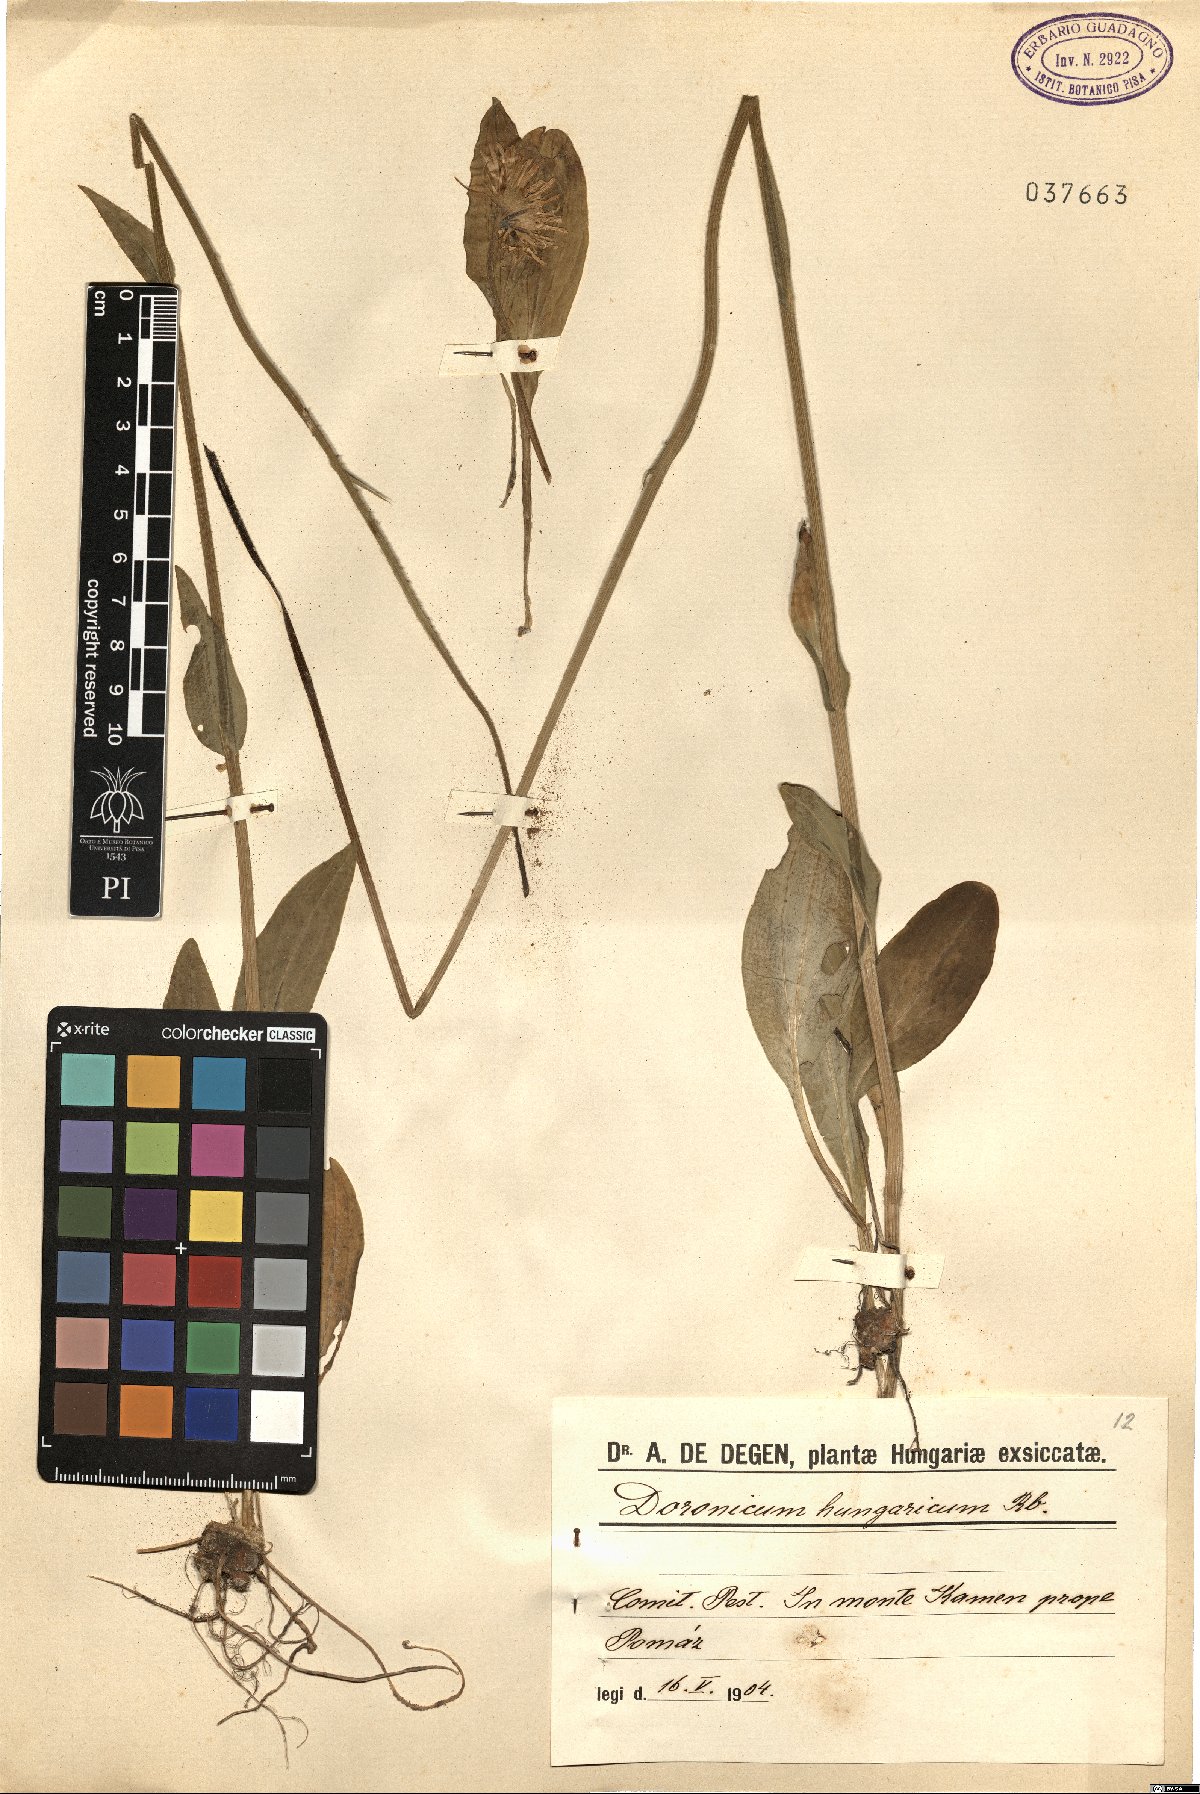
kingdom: Plantae
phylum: Tracheophyta
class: Magnoliopsida
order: Asterales
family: Asteraceae
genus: Doronicum
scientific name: Doronicum hungaricum
